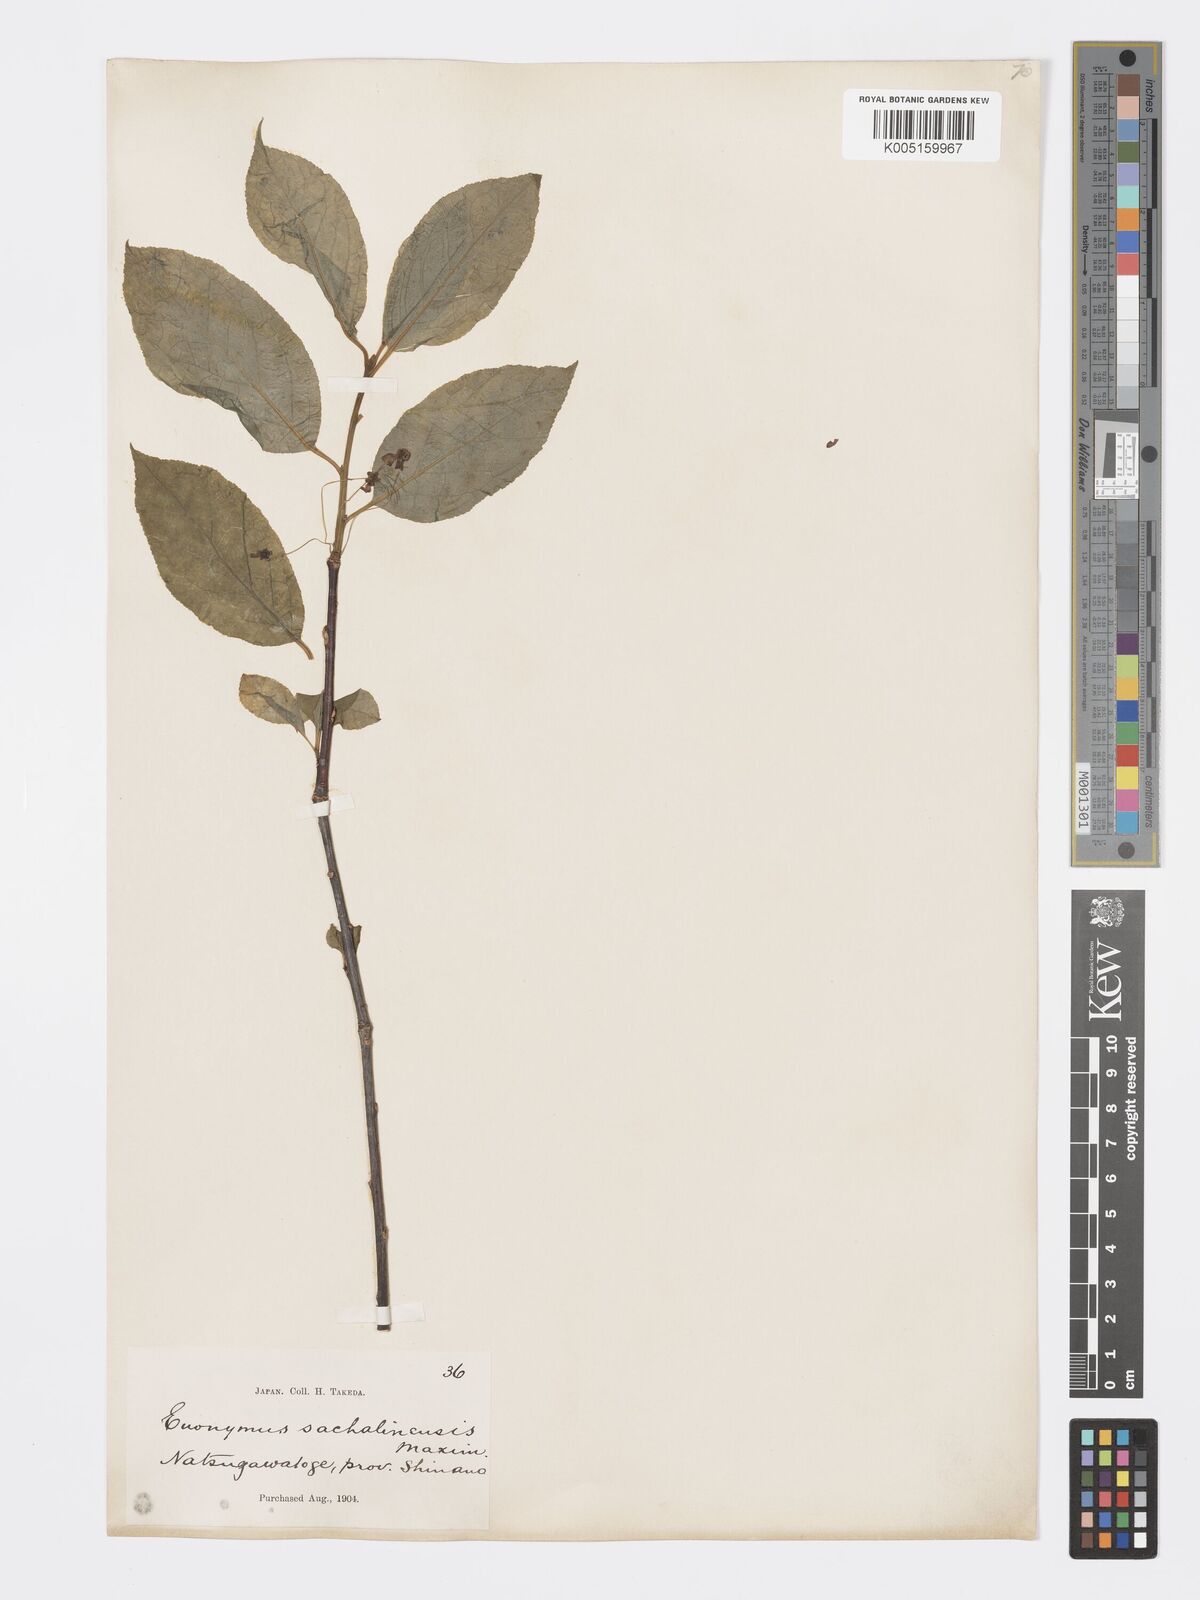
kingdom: Plantae
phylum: Tracheophyta
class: Magnoliopsida
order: Celastrales
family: Celastraceae
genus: Euonymus
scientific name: Euonymus sachalinensis
